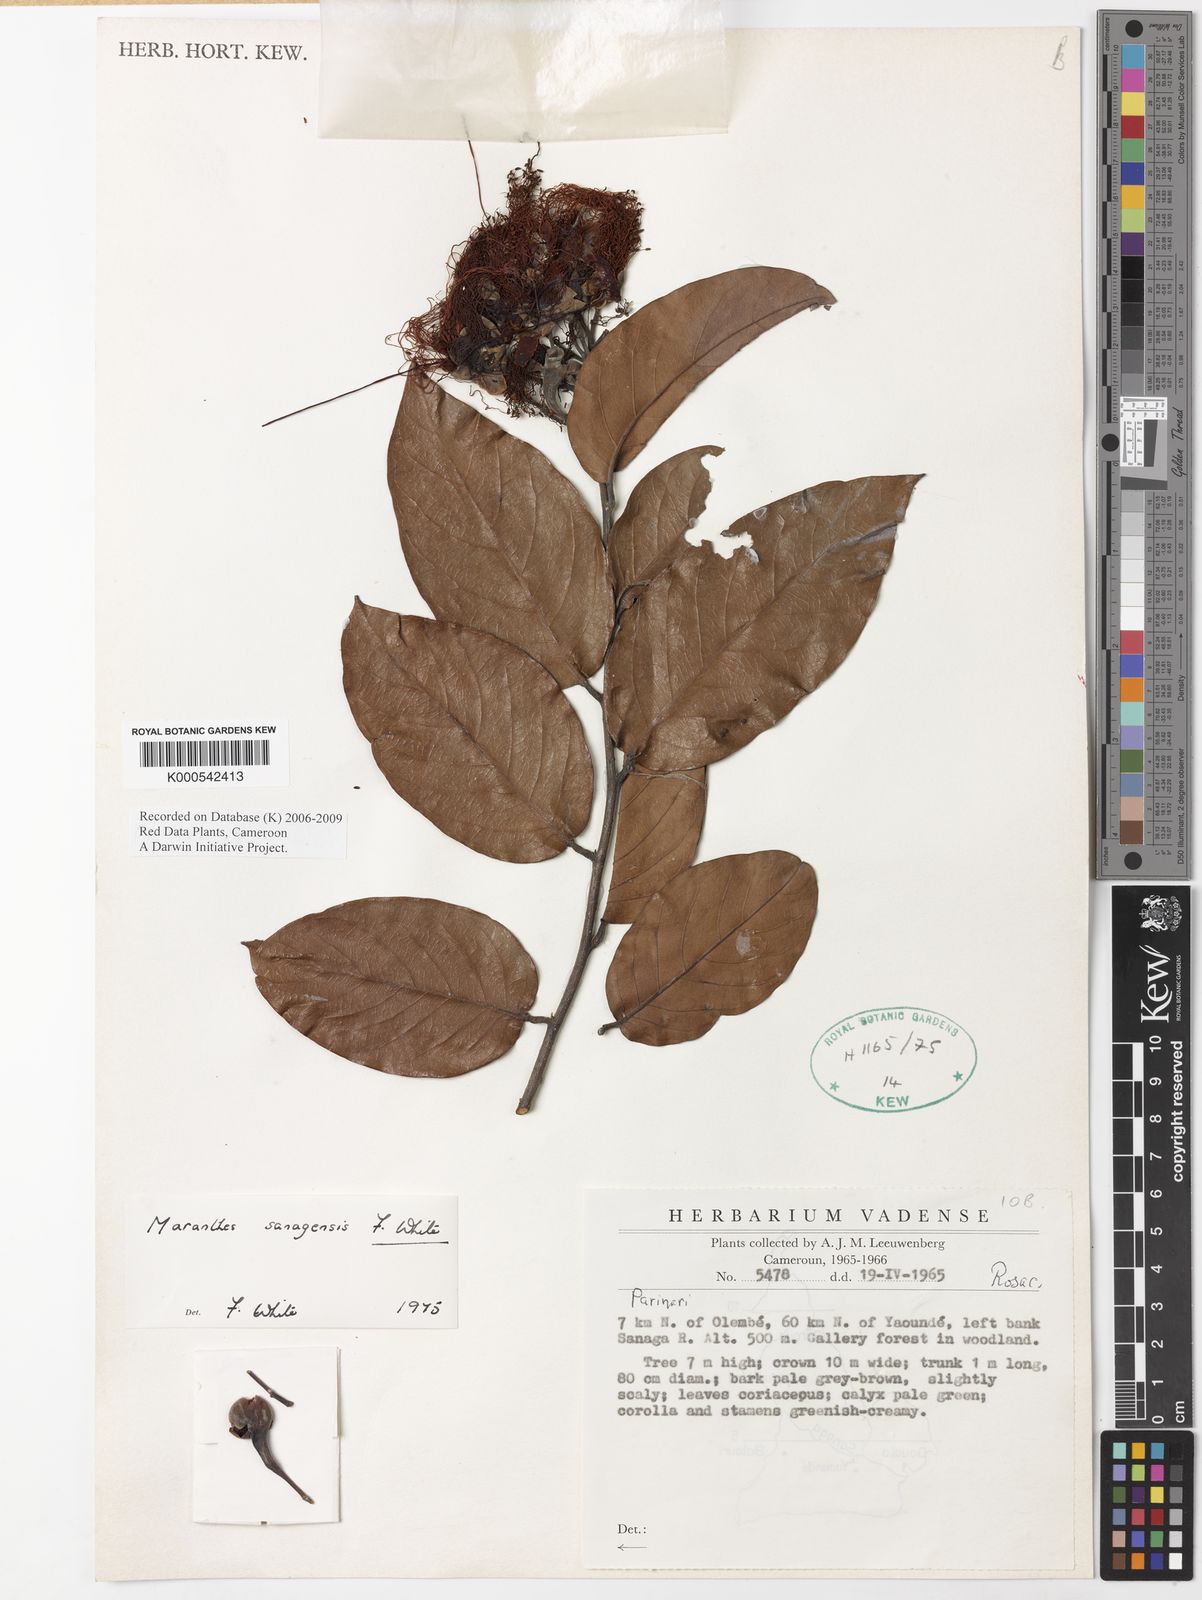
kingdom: Plantae
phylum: Tracheophyta
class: Magnoliopsida
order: Malpighiales
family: Chrysobalanaceae
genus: Maranthes
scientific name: Maranthes sanagensis
